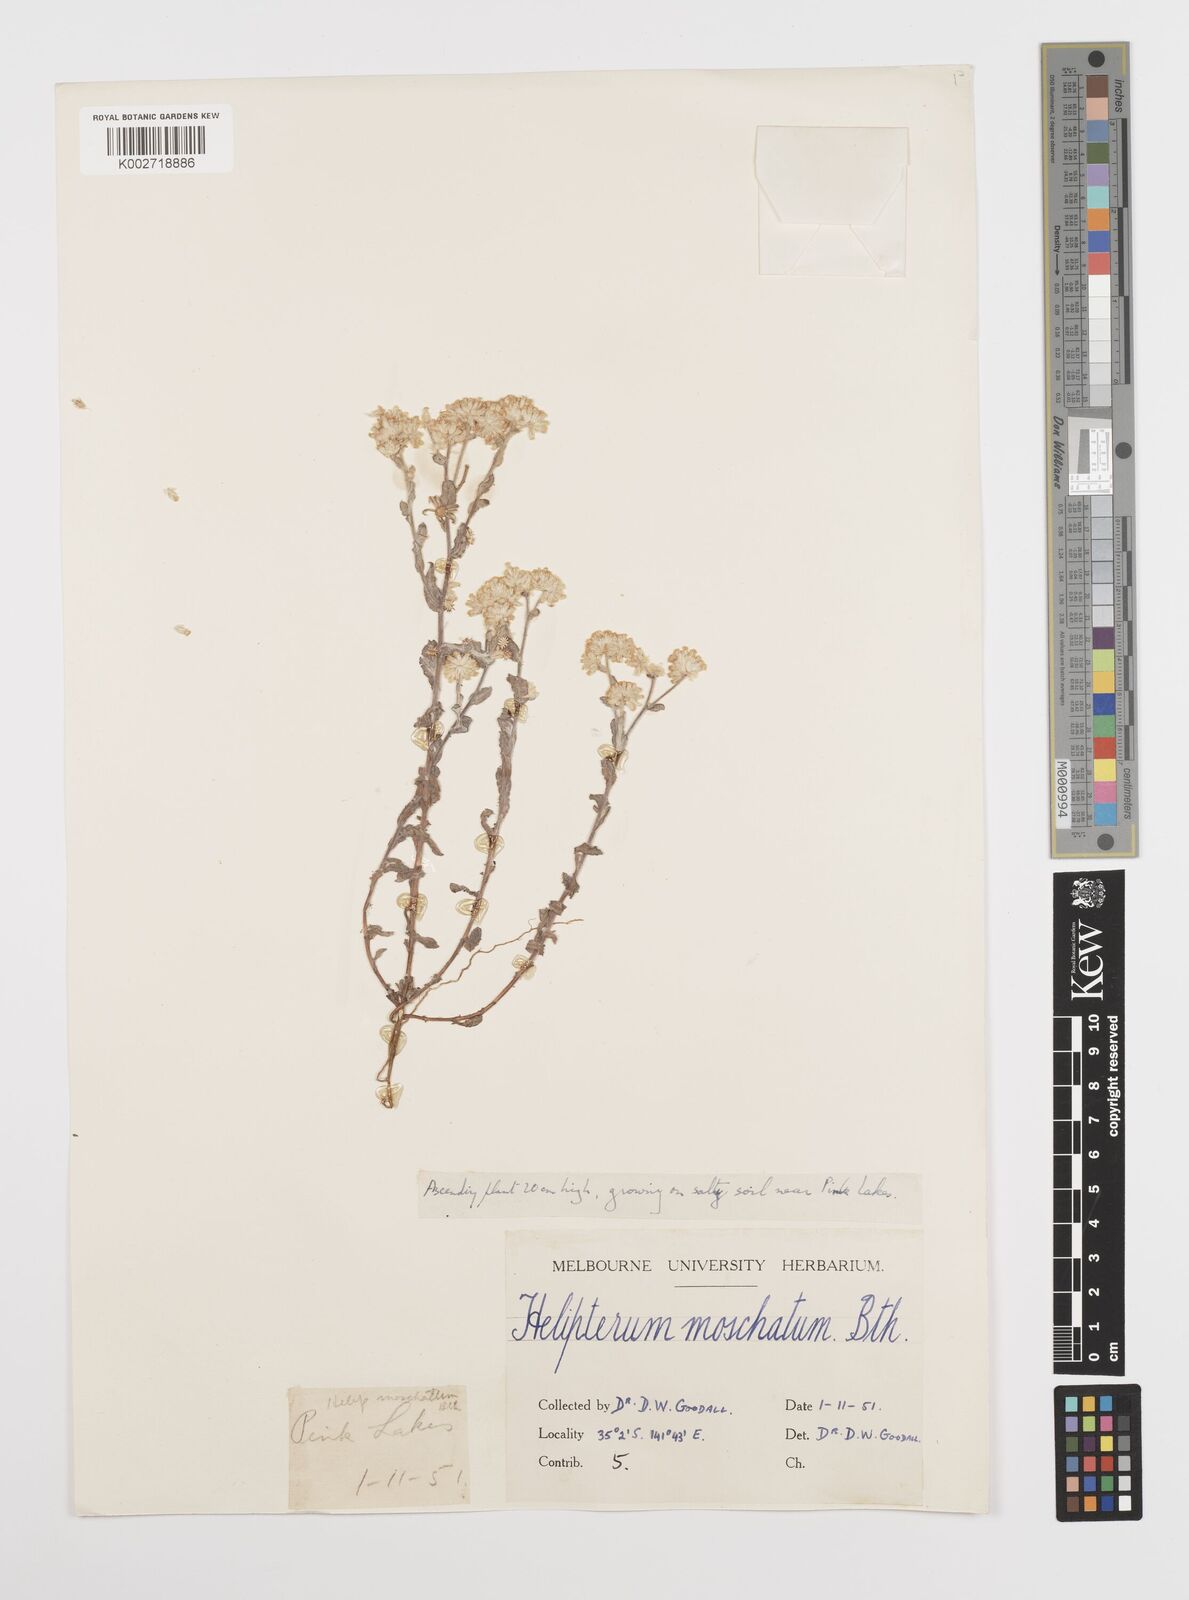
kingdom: Plantae
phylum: Tracheophyta
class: Magnoliopsida
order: Asterales
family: Asteraceae
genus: Rhodanthe
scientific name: Rhodanthe moschata
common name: Musk sunray
